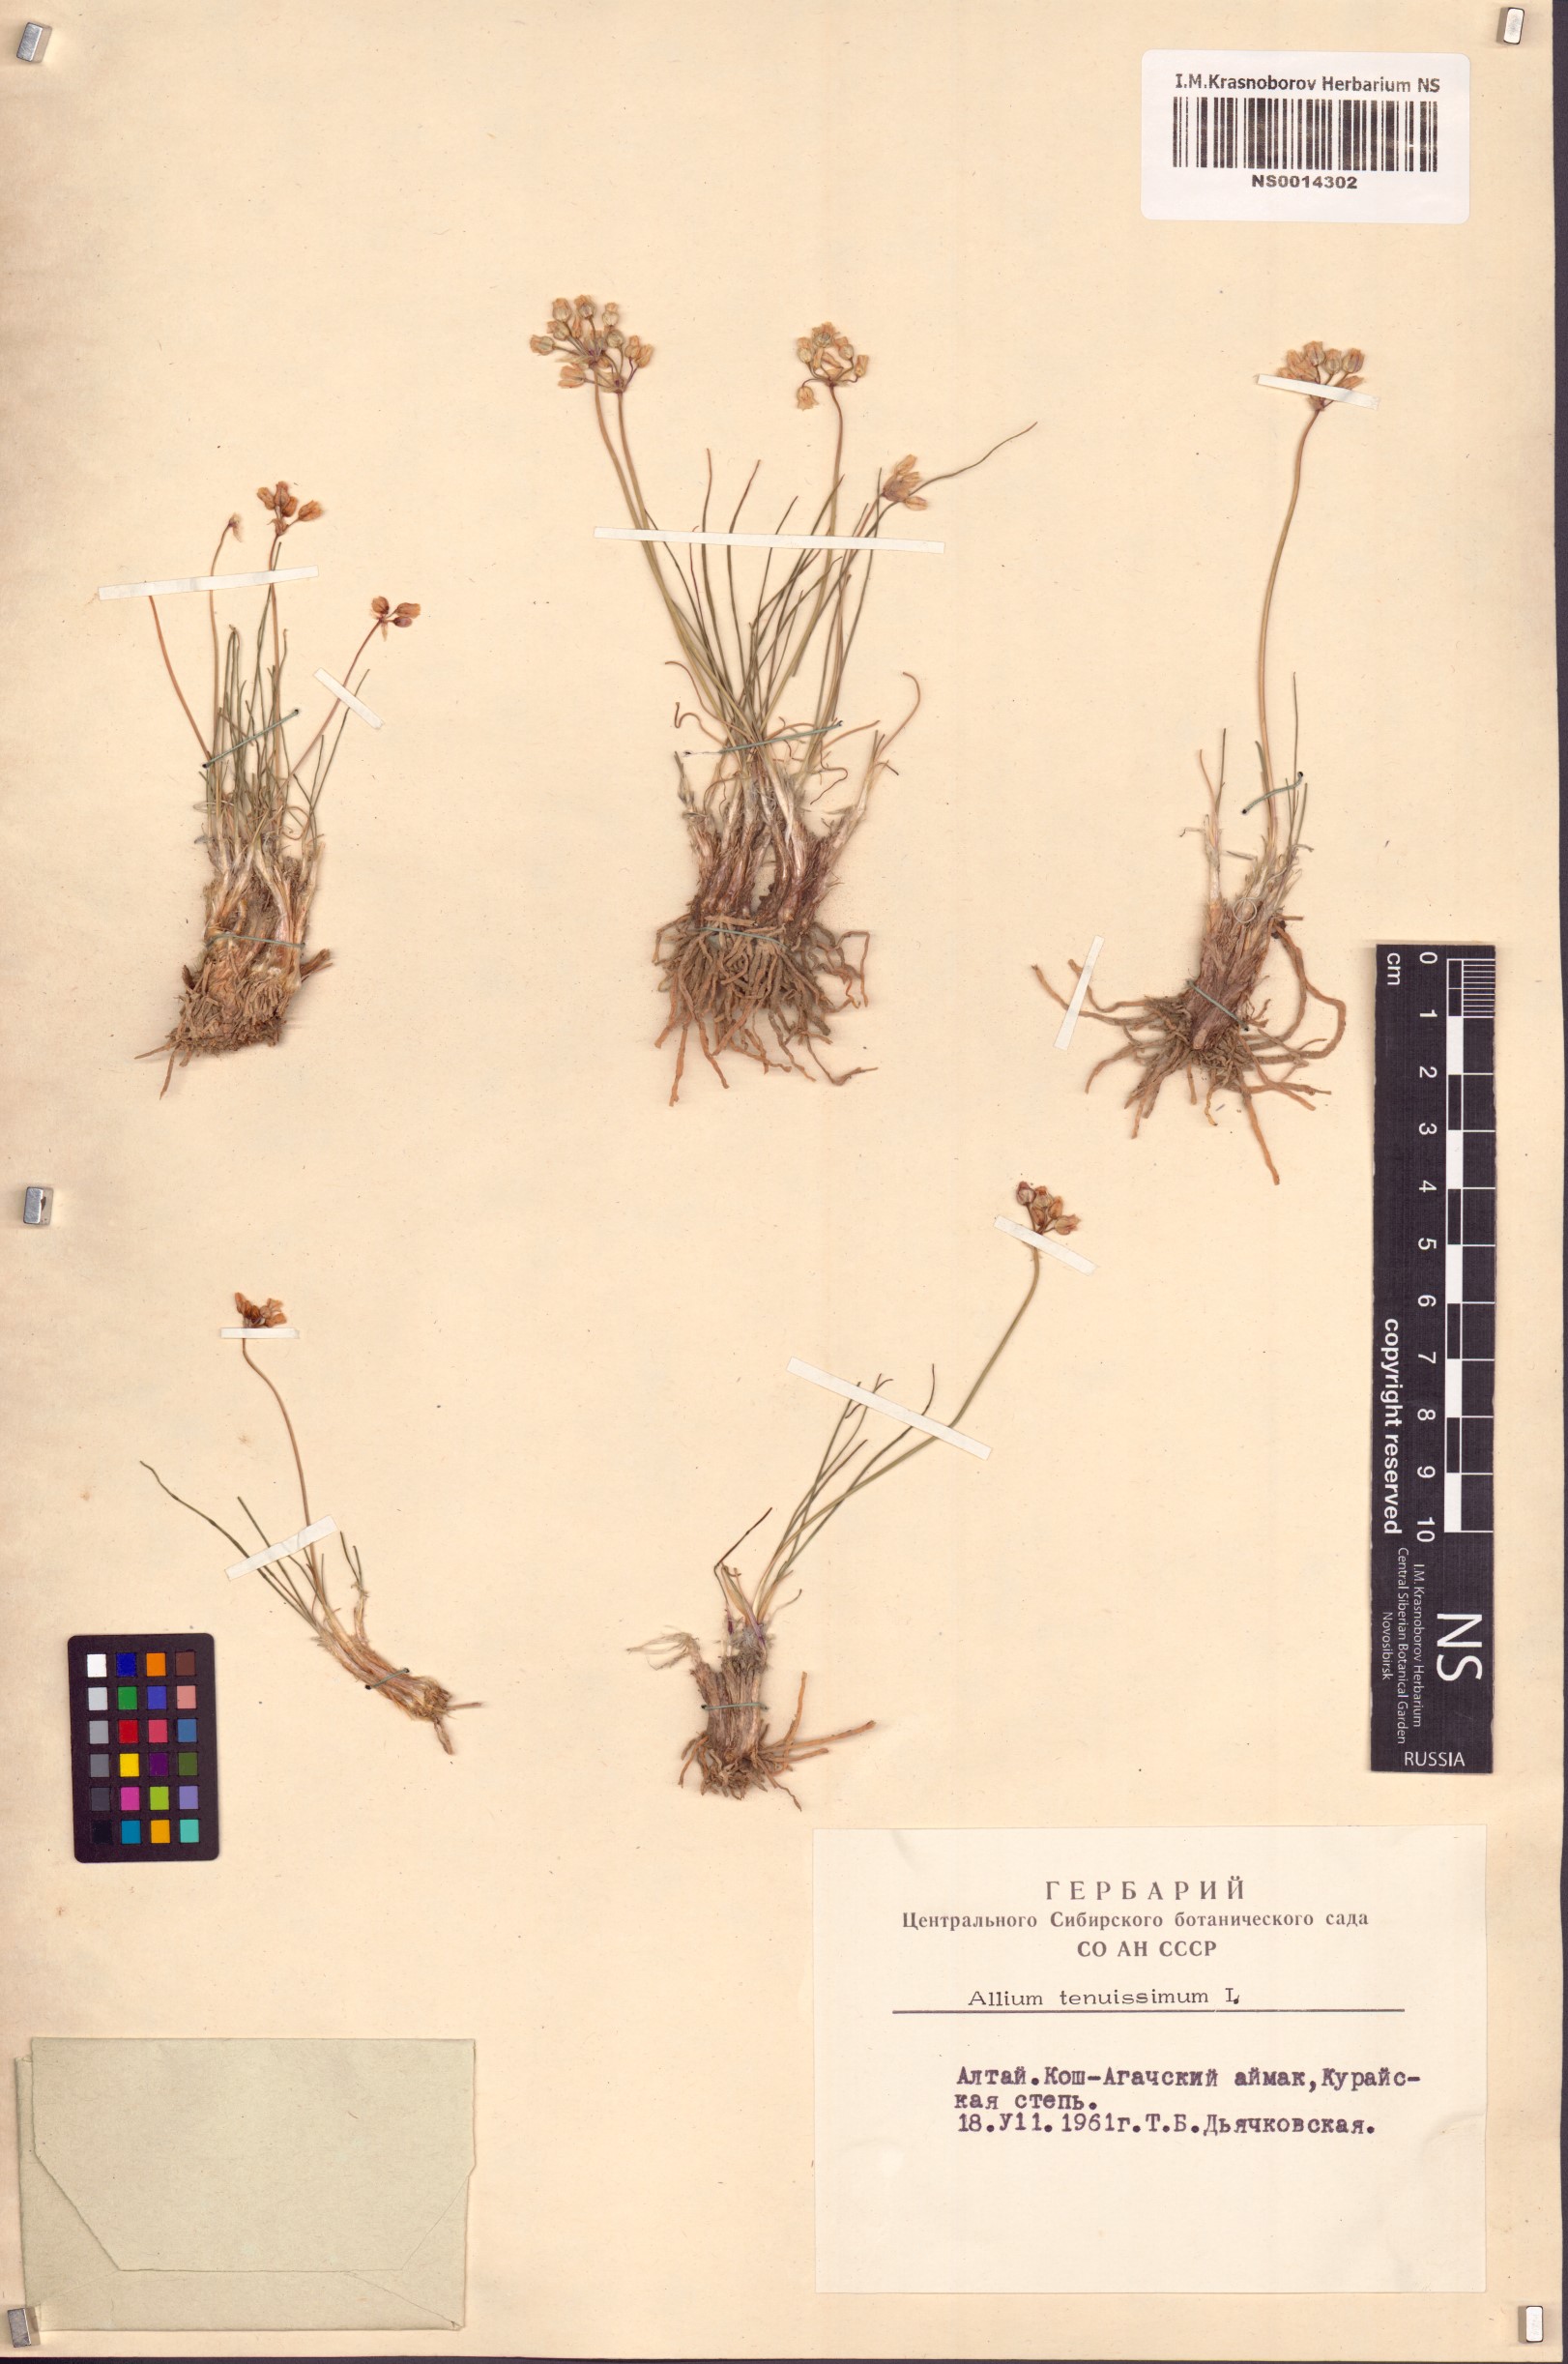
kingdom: Plantae
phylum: Tracheophyta
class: Liliopsida
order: Asparagales
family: Amaryllidaceae
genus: Allium
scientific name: Allium tenuissimum
